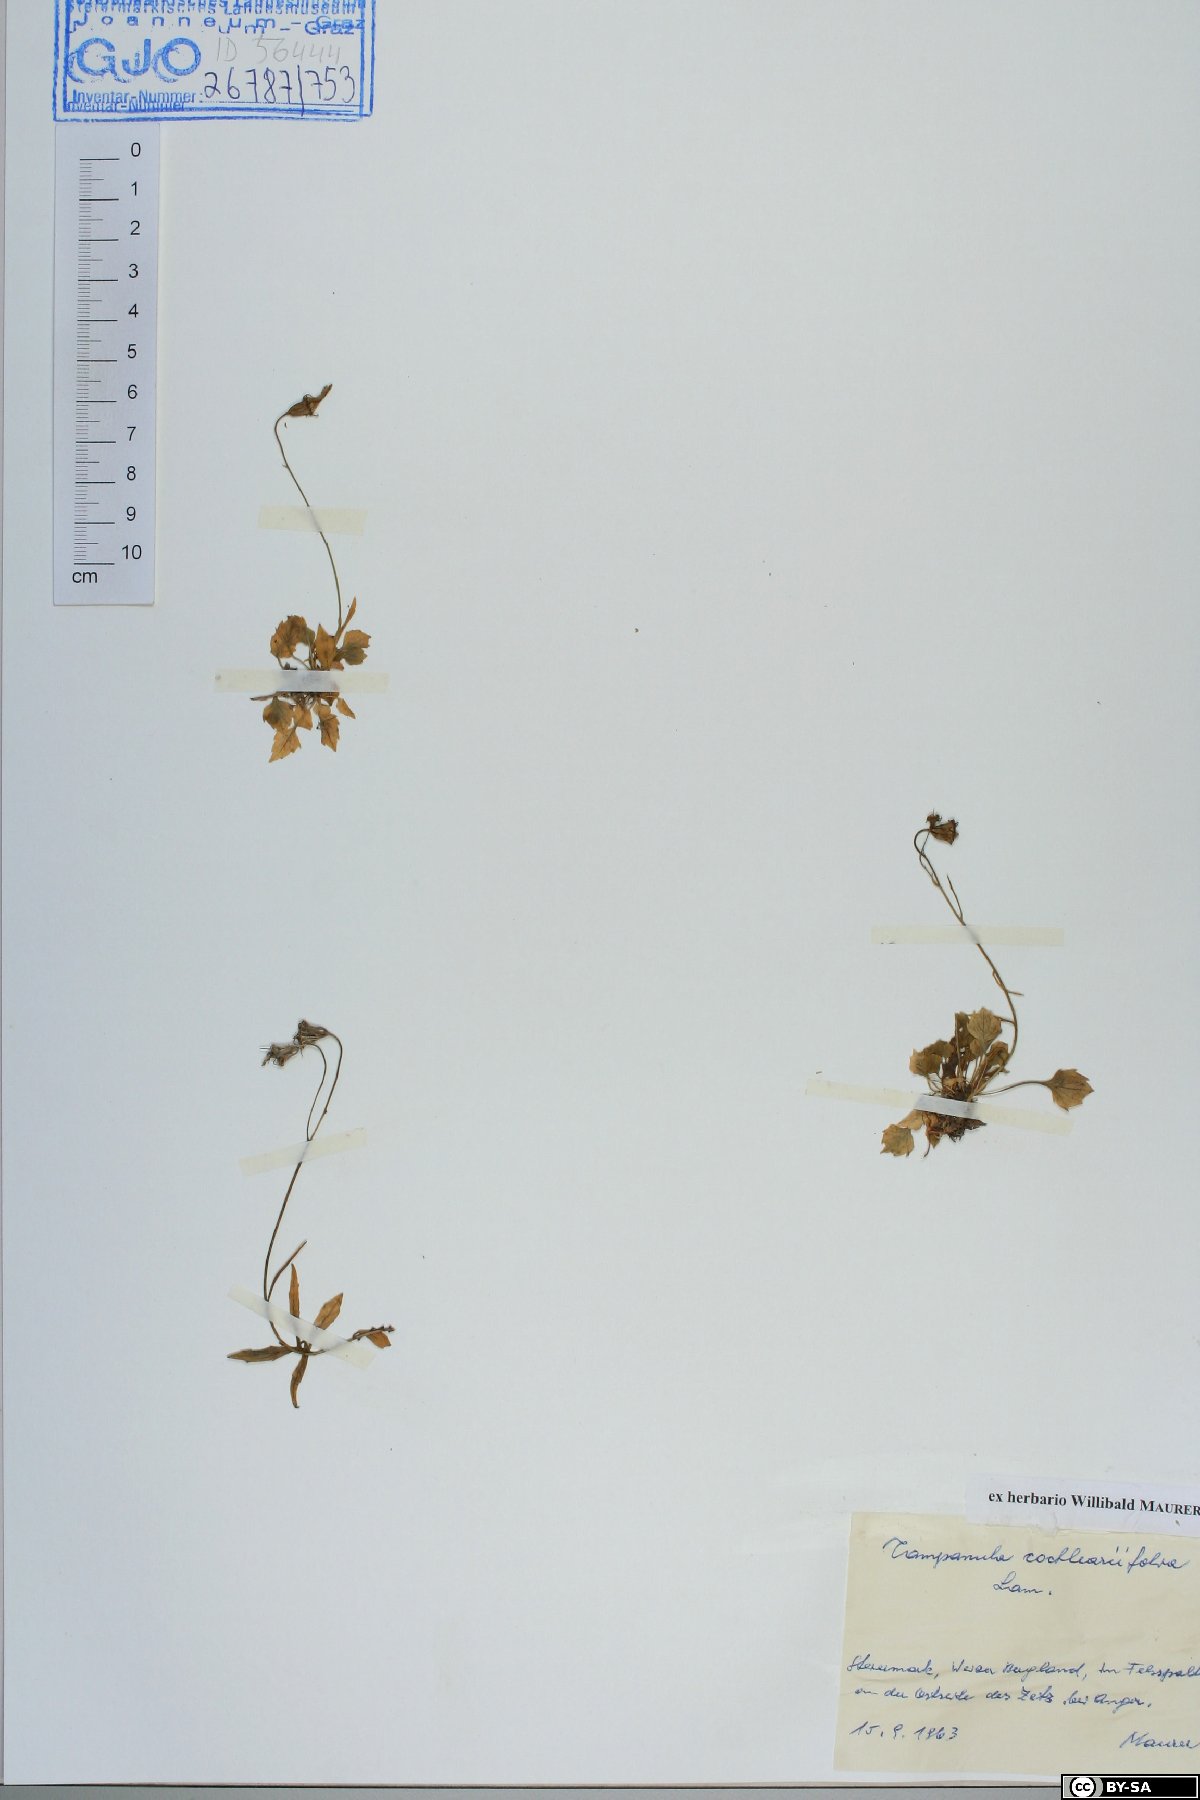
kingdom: Plantae
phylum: Tracheophyta
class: Magnoliopsida
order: Asterales
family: Campanulaceae
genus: Campanula
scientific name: Campanula cochleariifolia
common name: Fairies'-thimbles
